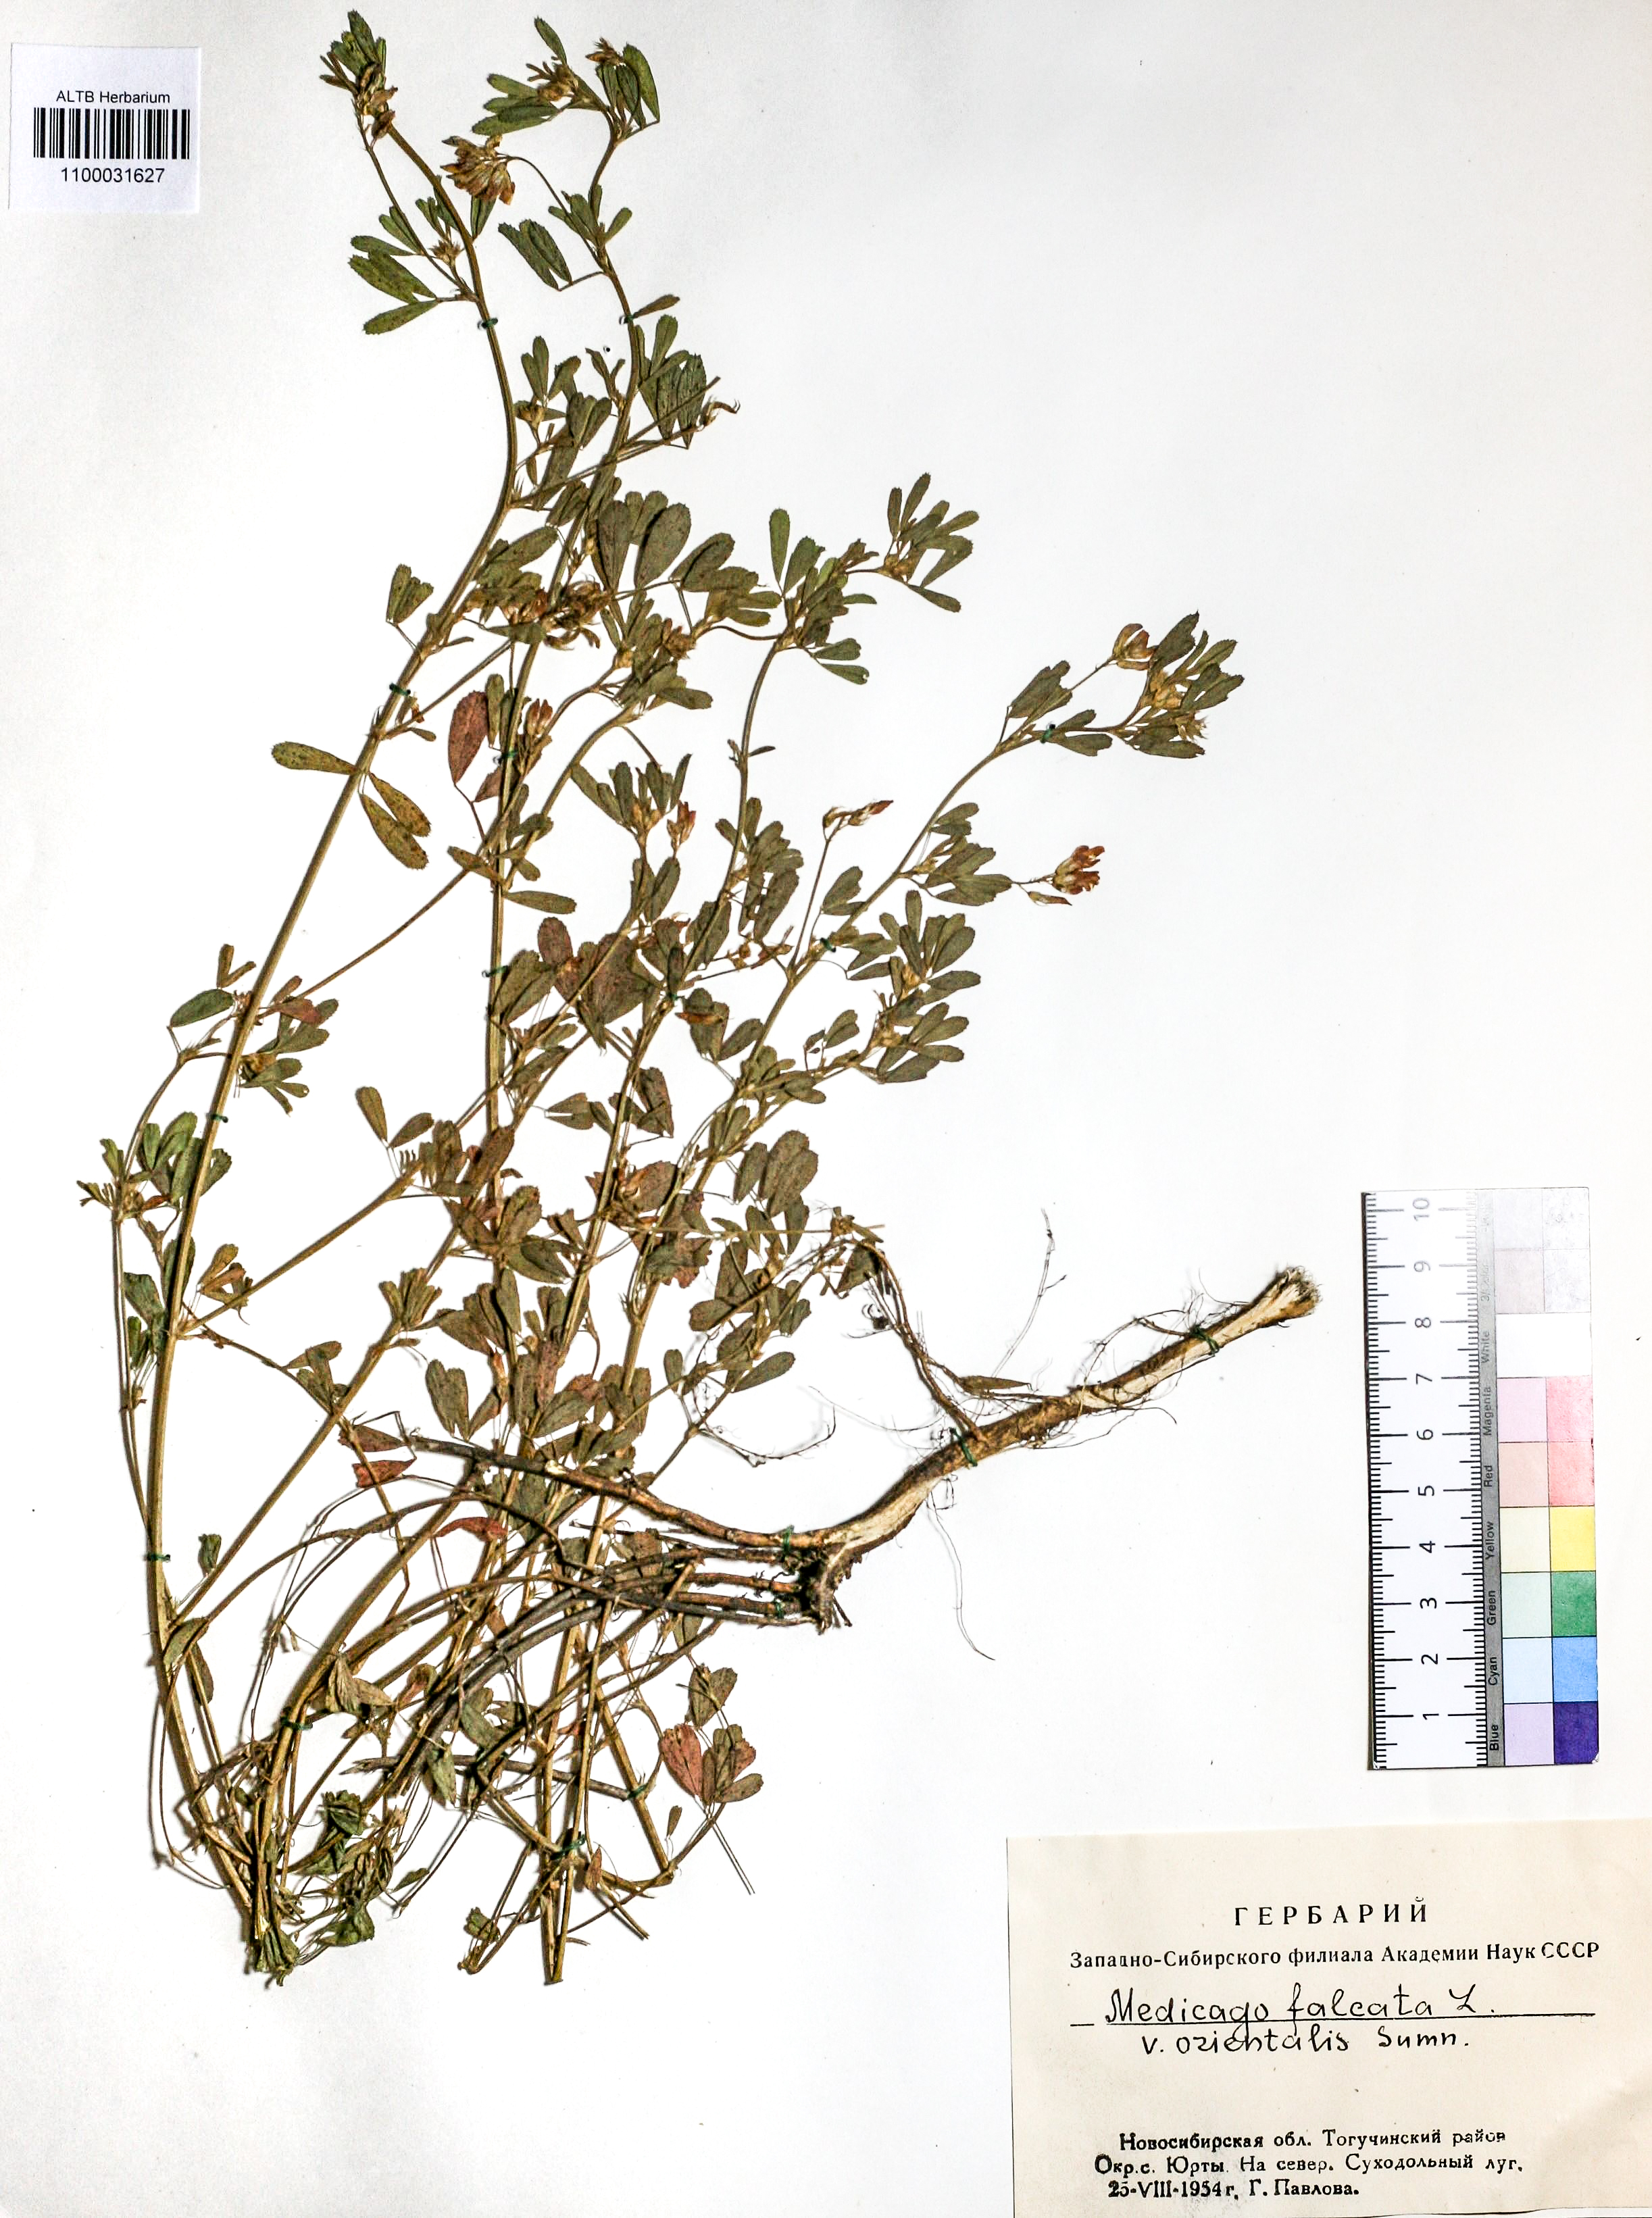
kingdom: Plantae
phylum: Tracheophyta
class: Magnoliopsida
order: Fabales
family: Fabaceae
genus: Medicago
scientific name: Medicago falcata
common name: Sickle medick
